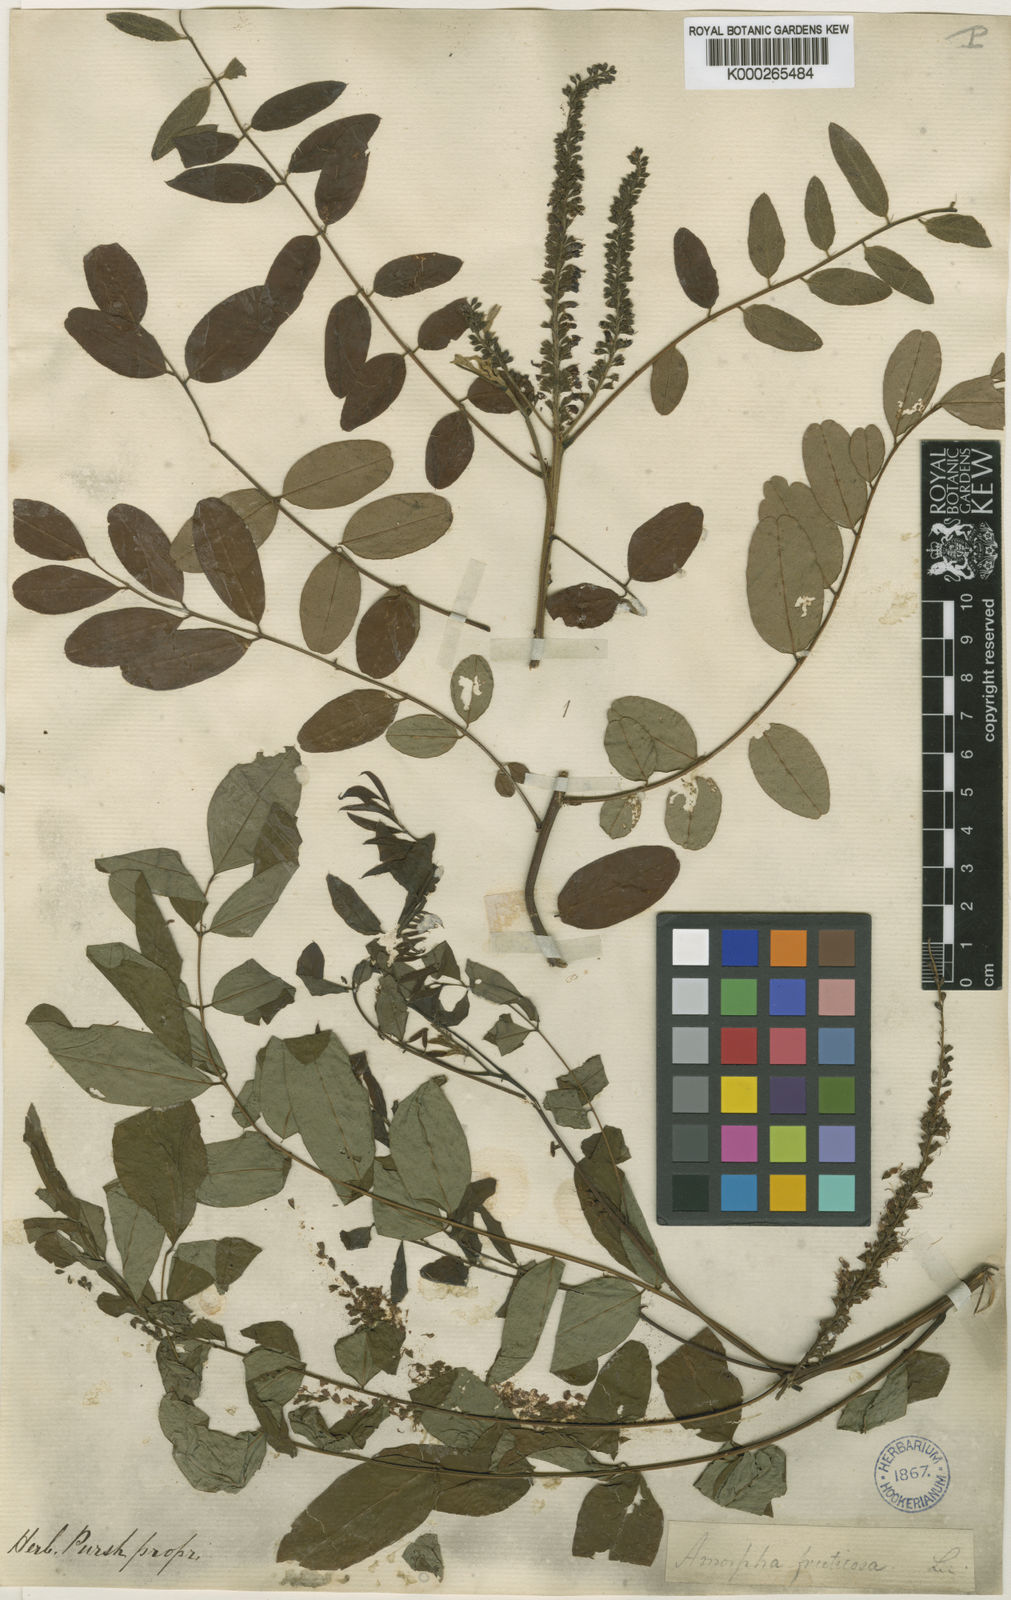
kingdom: Plantae
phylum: Tracheophyta
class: Magnoliopsida
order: Fabales
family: Fabaceae
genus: Amorpha
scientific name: Amorpha
